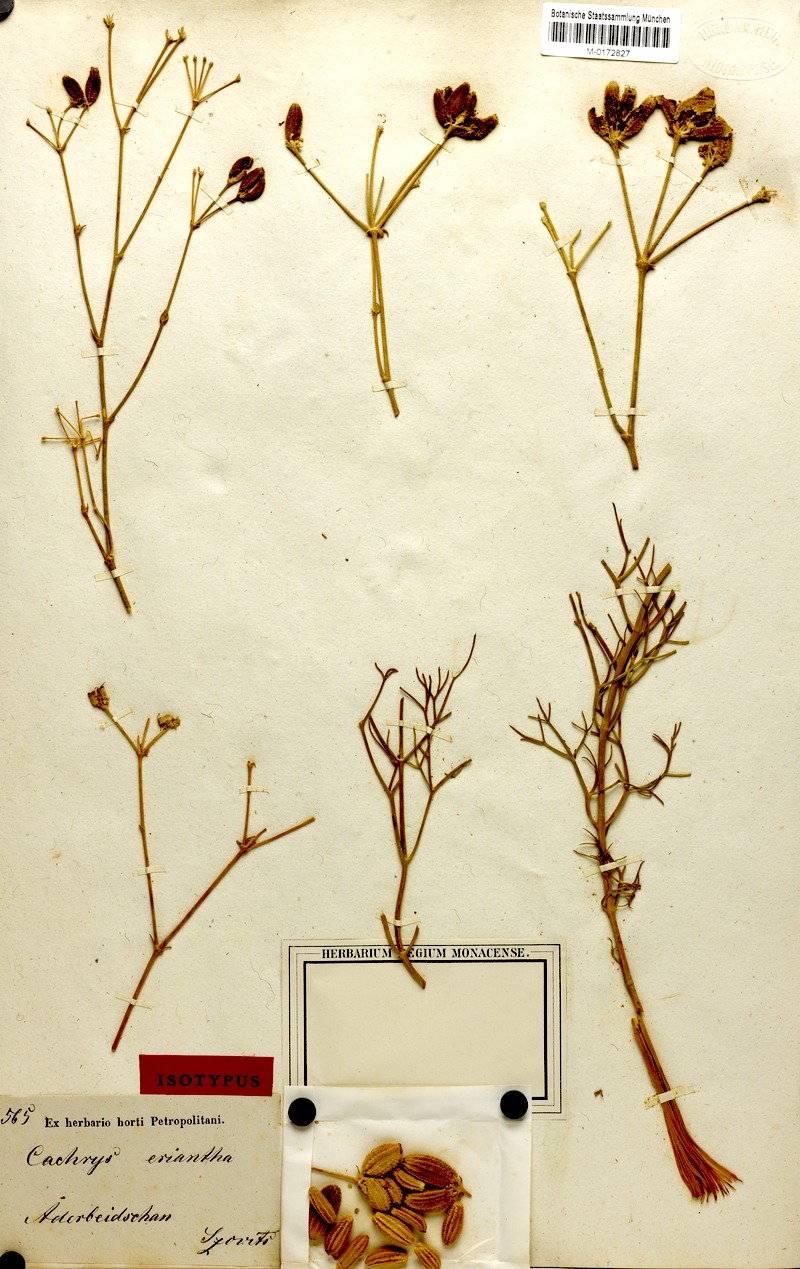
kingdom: Plantae
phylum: Tracheophyta
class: Magnoliopsida
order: Apiales
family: Apiaceae
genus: Prangos
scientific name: Prangos eriantha
